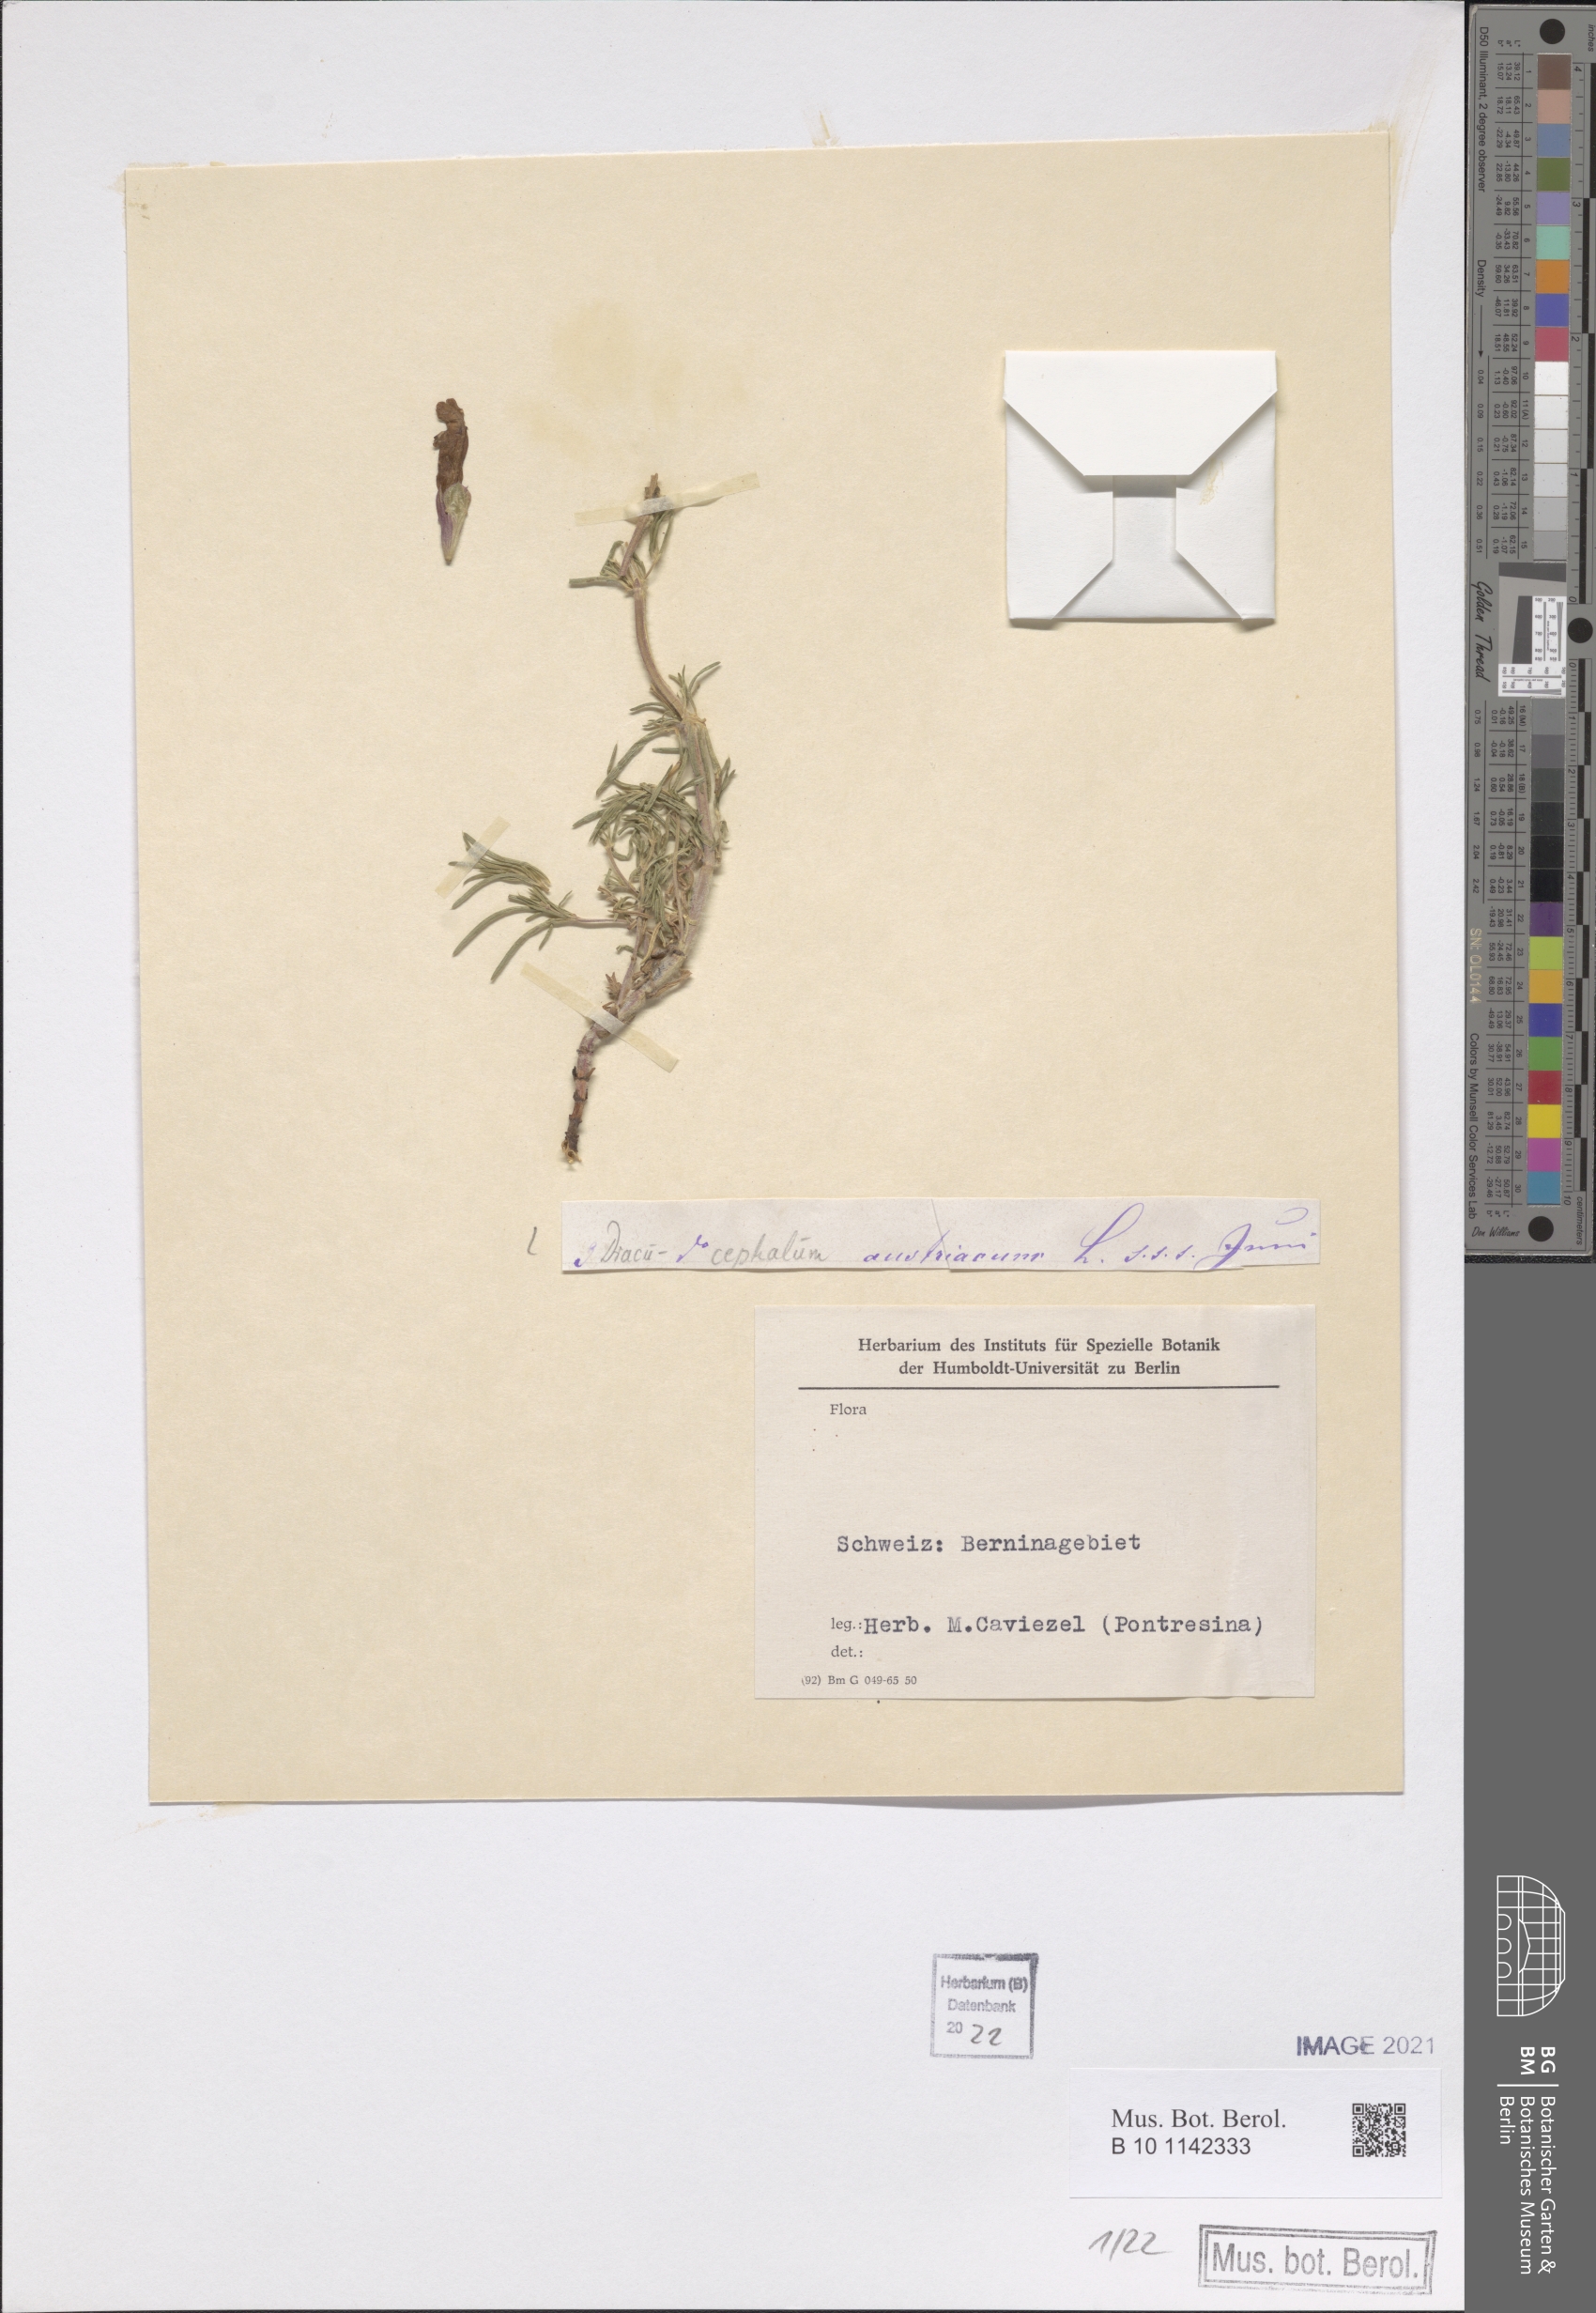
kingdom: Plantae
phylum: Tracheophyta
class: Magnoliopsida
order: Lamiales
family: Lamiaceae
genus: Dracocephalum
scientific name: Dracocephalum austriacum
